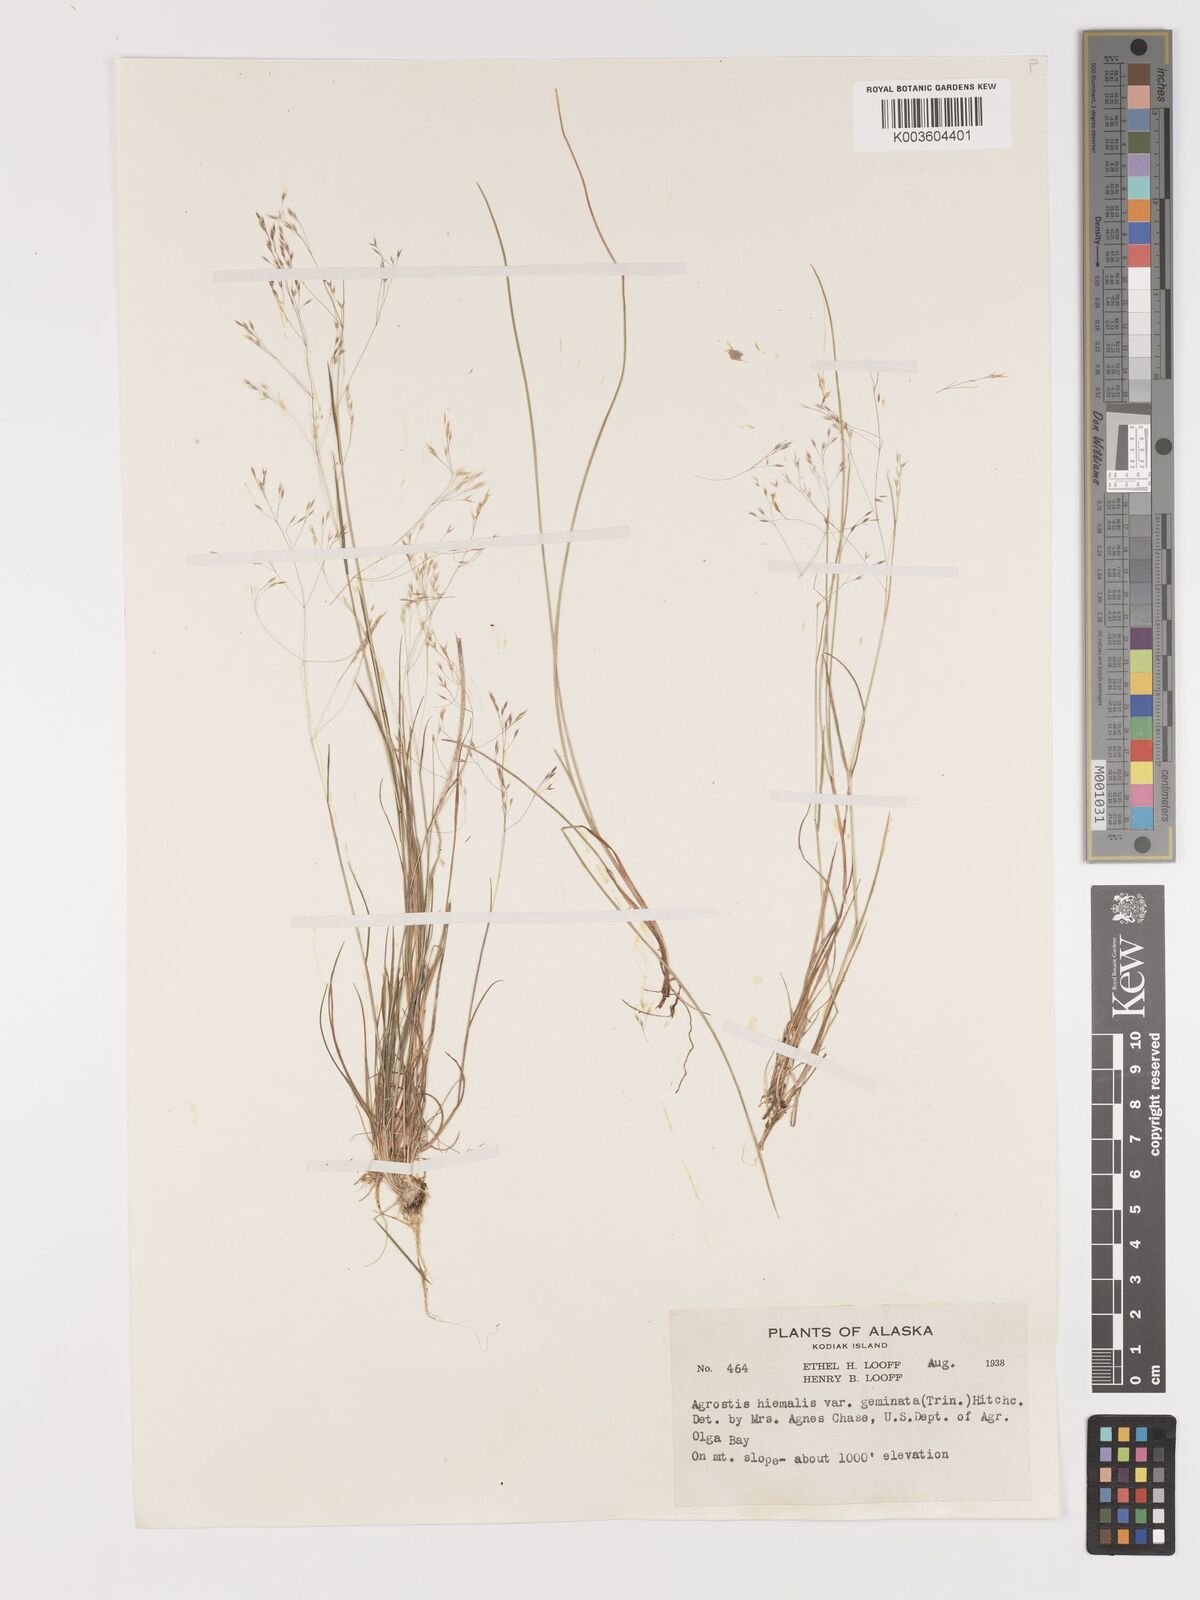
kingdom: Plantae
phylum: Tracheophyta
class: Liliopsida
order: Poales
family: Poaceae
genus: Agrostis
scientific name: Agrostis hyemalis
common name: Small bent
